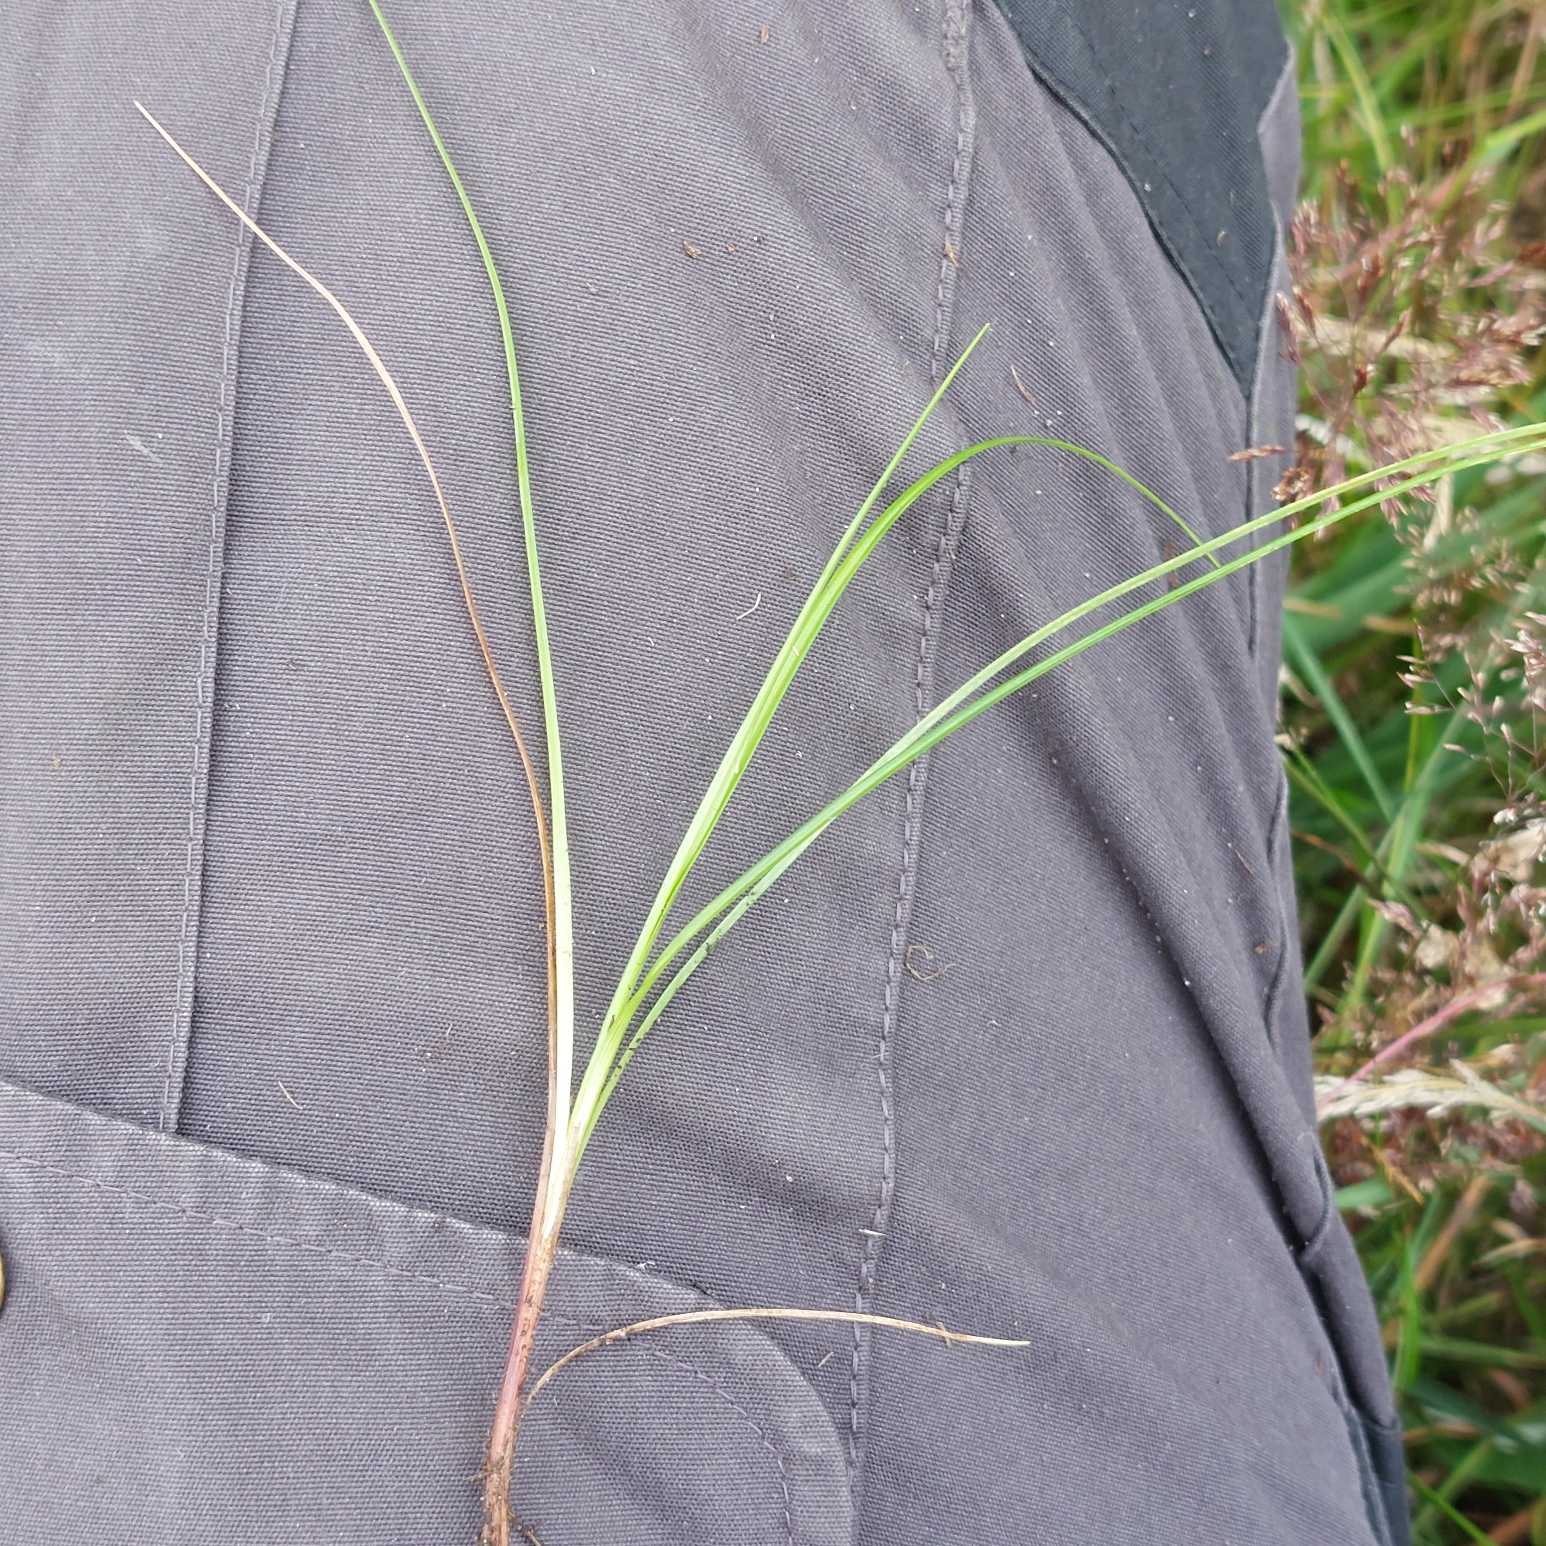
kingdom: Plantae
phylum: Tracheophyta
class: Liliopsida
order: Poales
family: Cyperaceae
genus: Carex
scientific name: Carex pilulifera
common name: Pille-star
